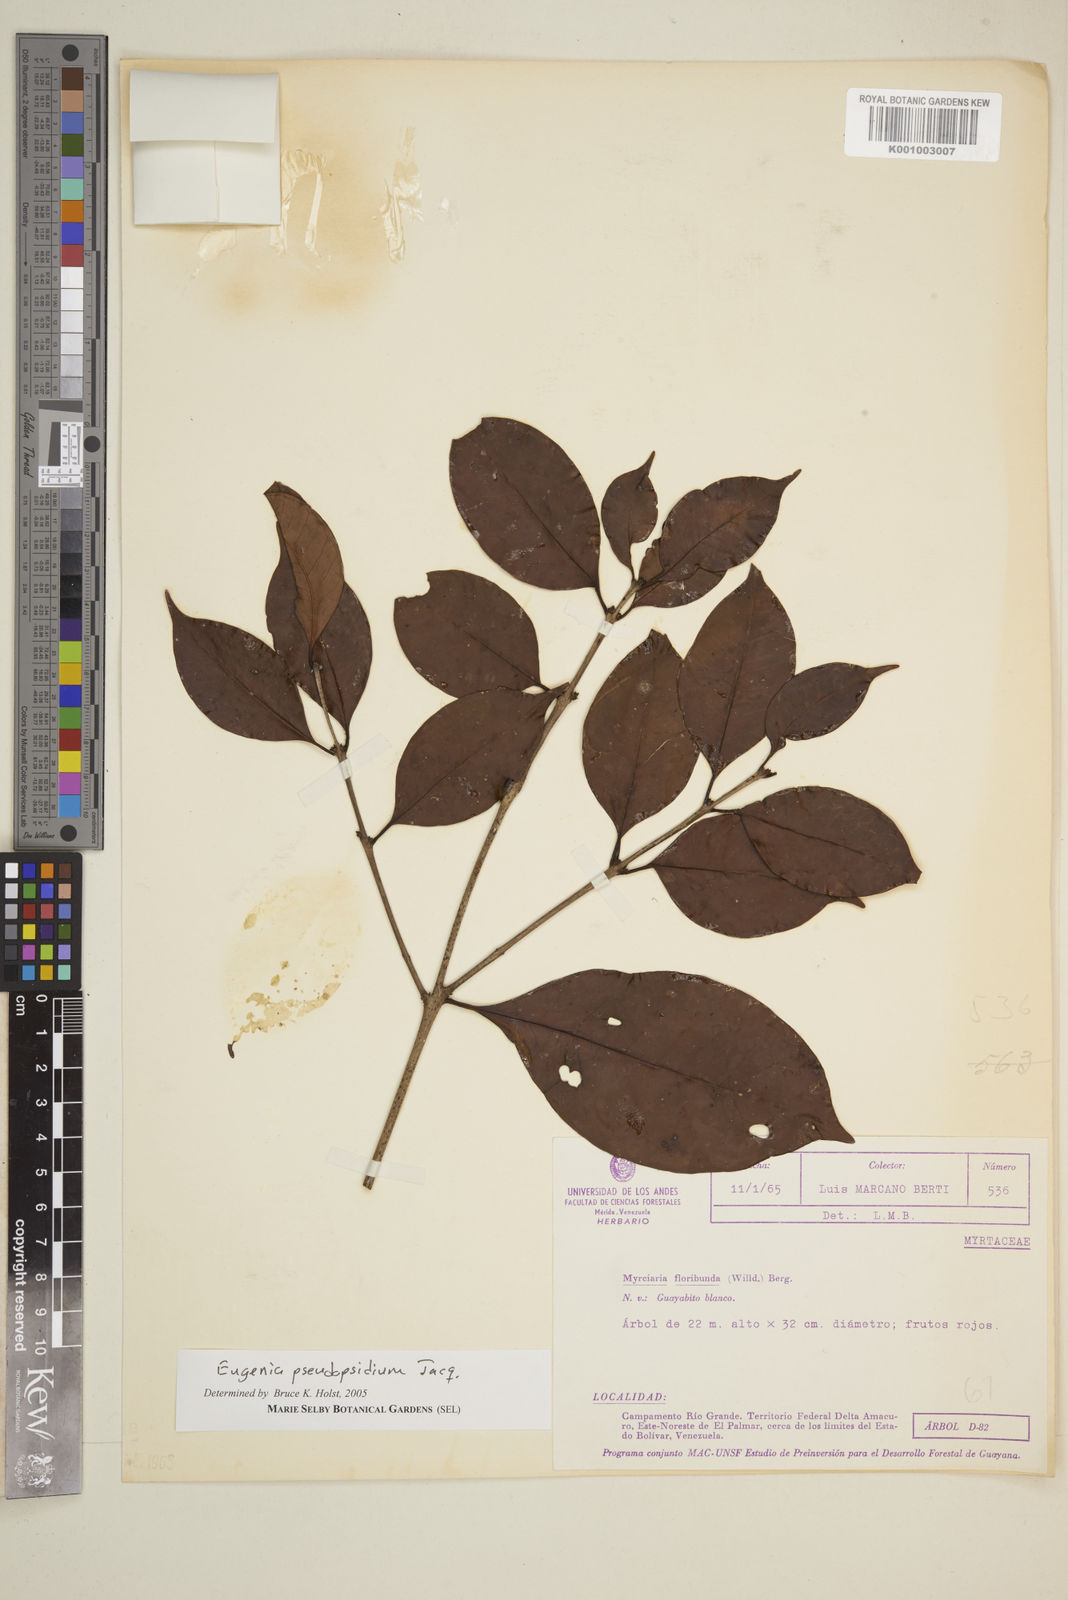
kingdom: Plantae
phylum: Tracheophyta
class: Magnoliopsida
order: Myrtales
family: Myrtaceae
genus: Eugenia
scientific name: Eugenia pseudopsidium
